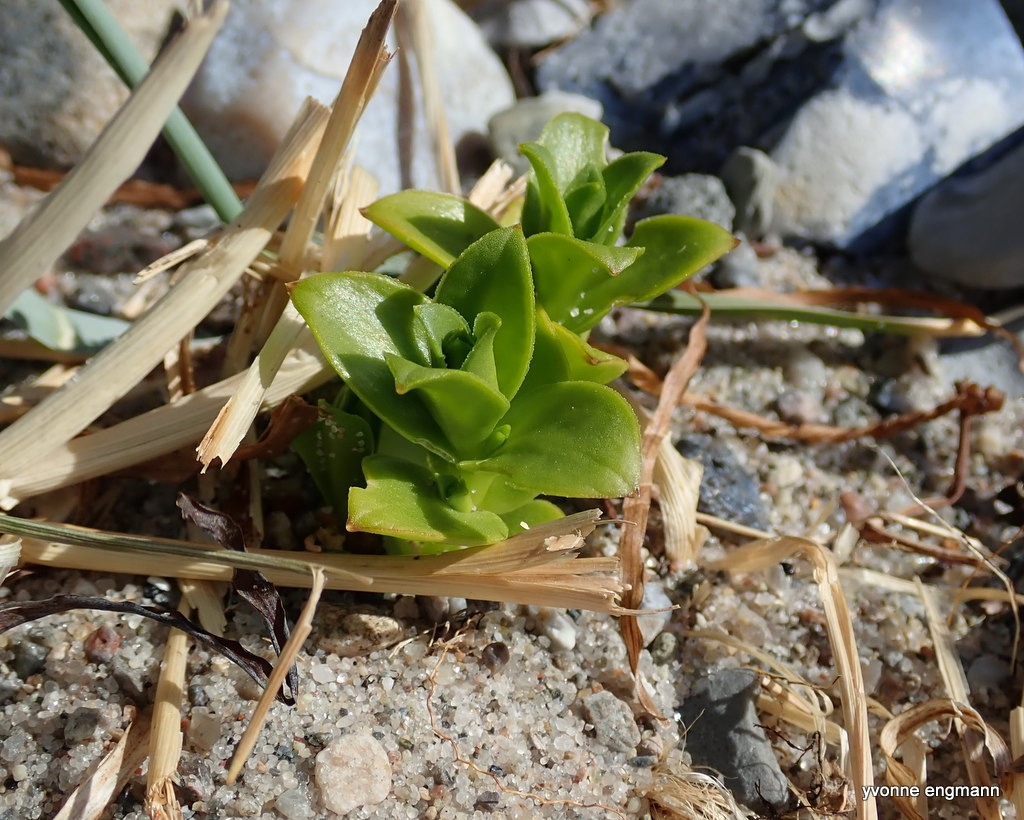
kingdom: Plantae
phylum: Tracheophyta
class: Magnoliopsida
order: Caryophyllales
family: Caryophyllaceae
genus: Honckenya
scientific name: Honckenya peploides
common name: Strandarve
